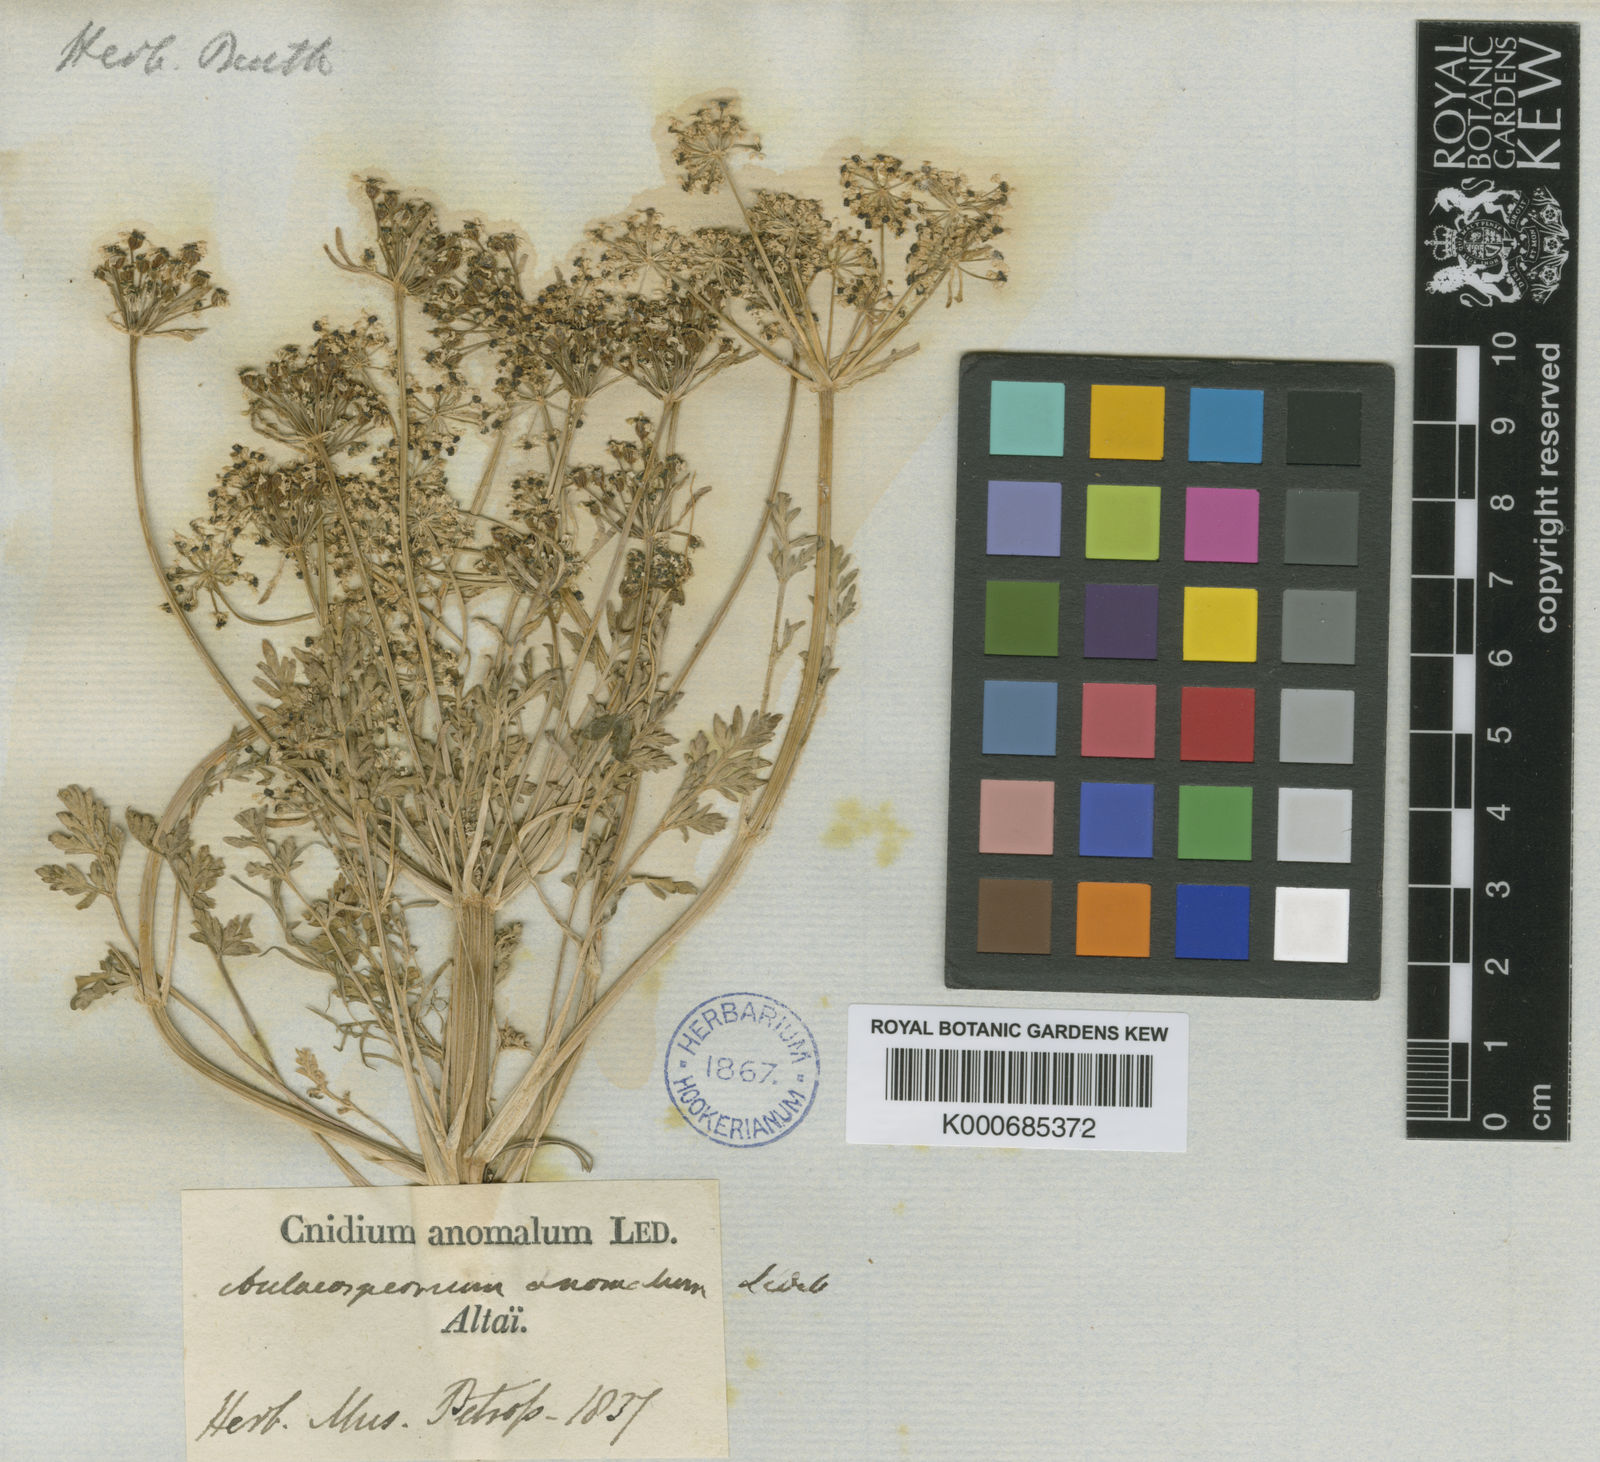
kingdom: Plantae
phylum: Tracheophyta
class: Magnoliopsida
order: Apiales
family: Apiaceae
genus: Aulacospermum
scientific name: Aulacospermum
